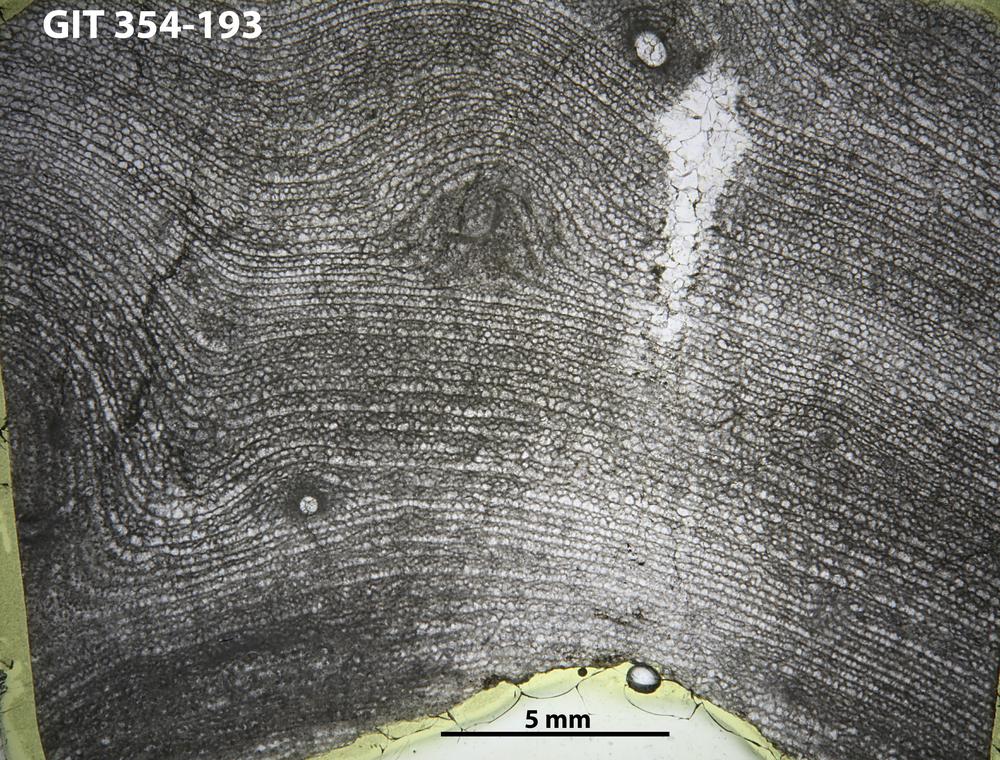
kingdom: Animalia
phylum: Porifera
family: Clathrodictyidae
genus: Clathrodictyon
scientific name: Clathrodictyon kudriavzevi
